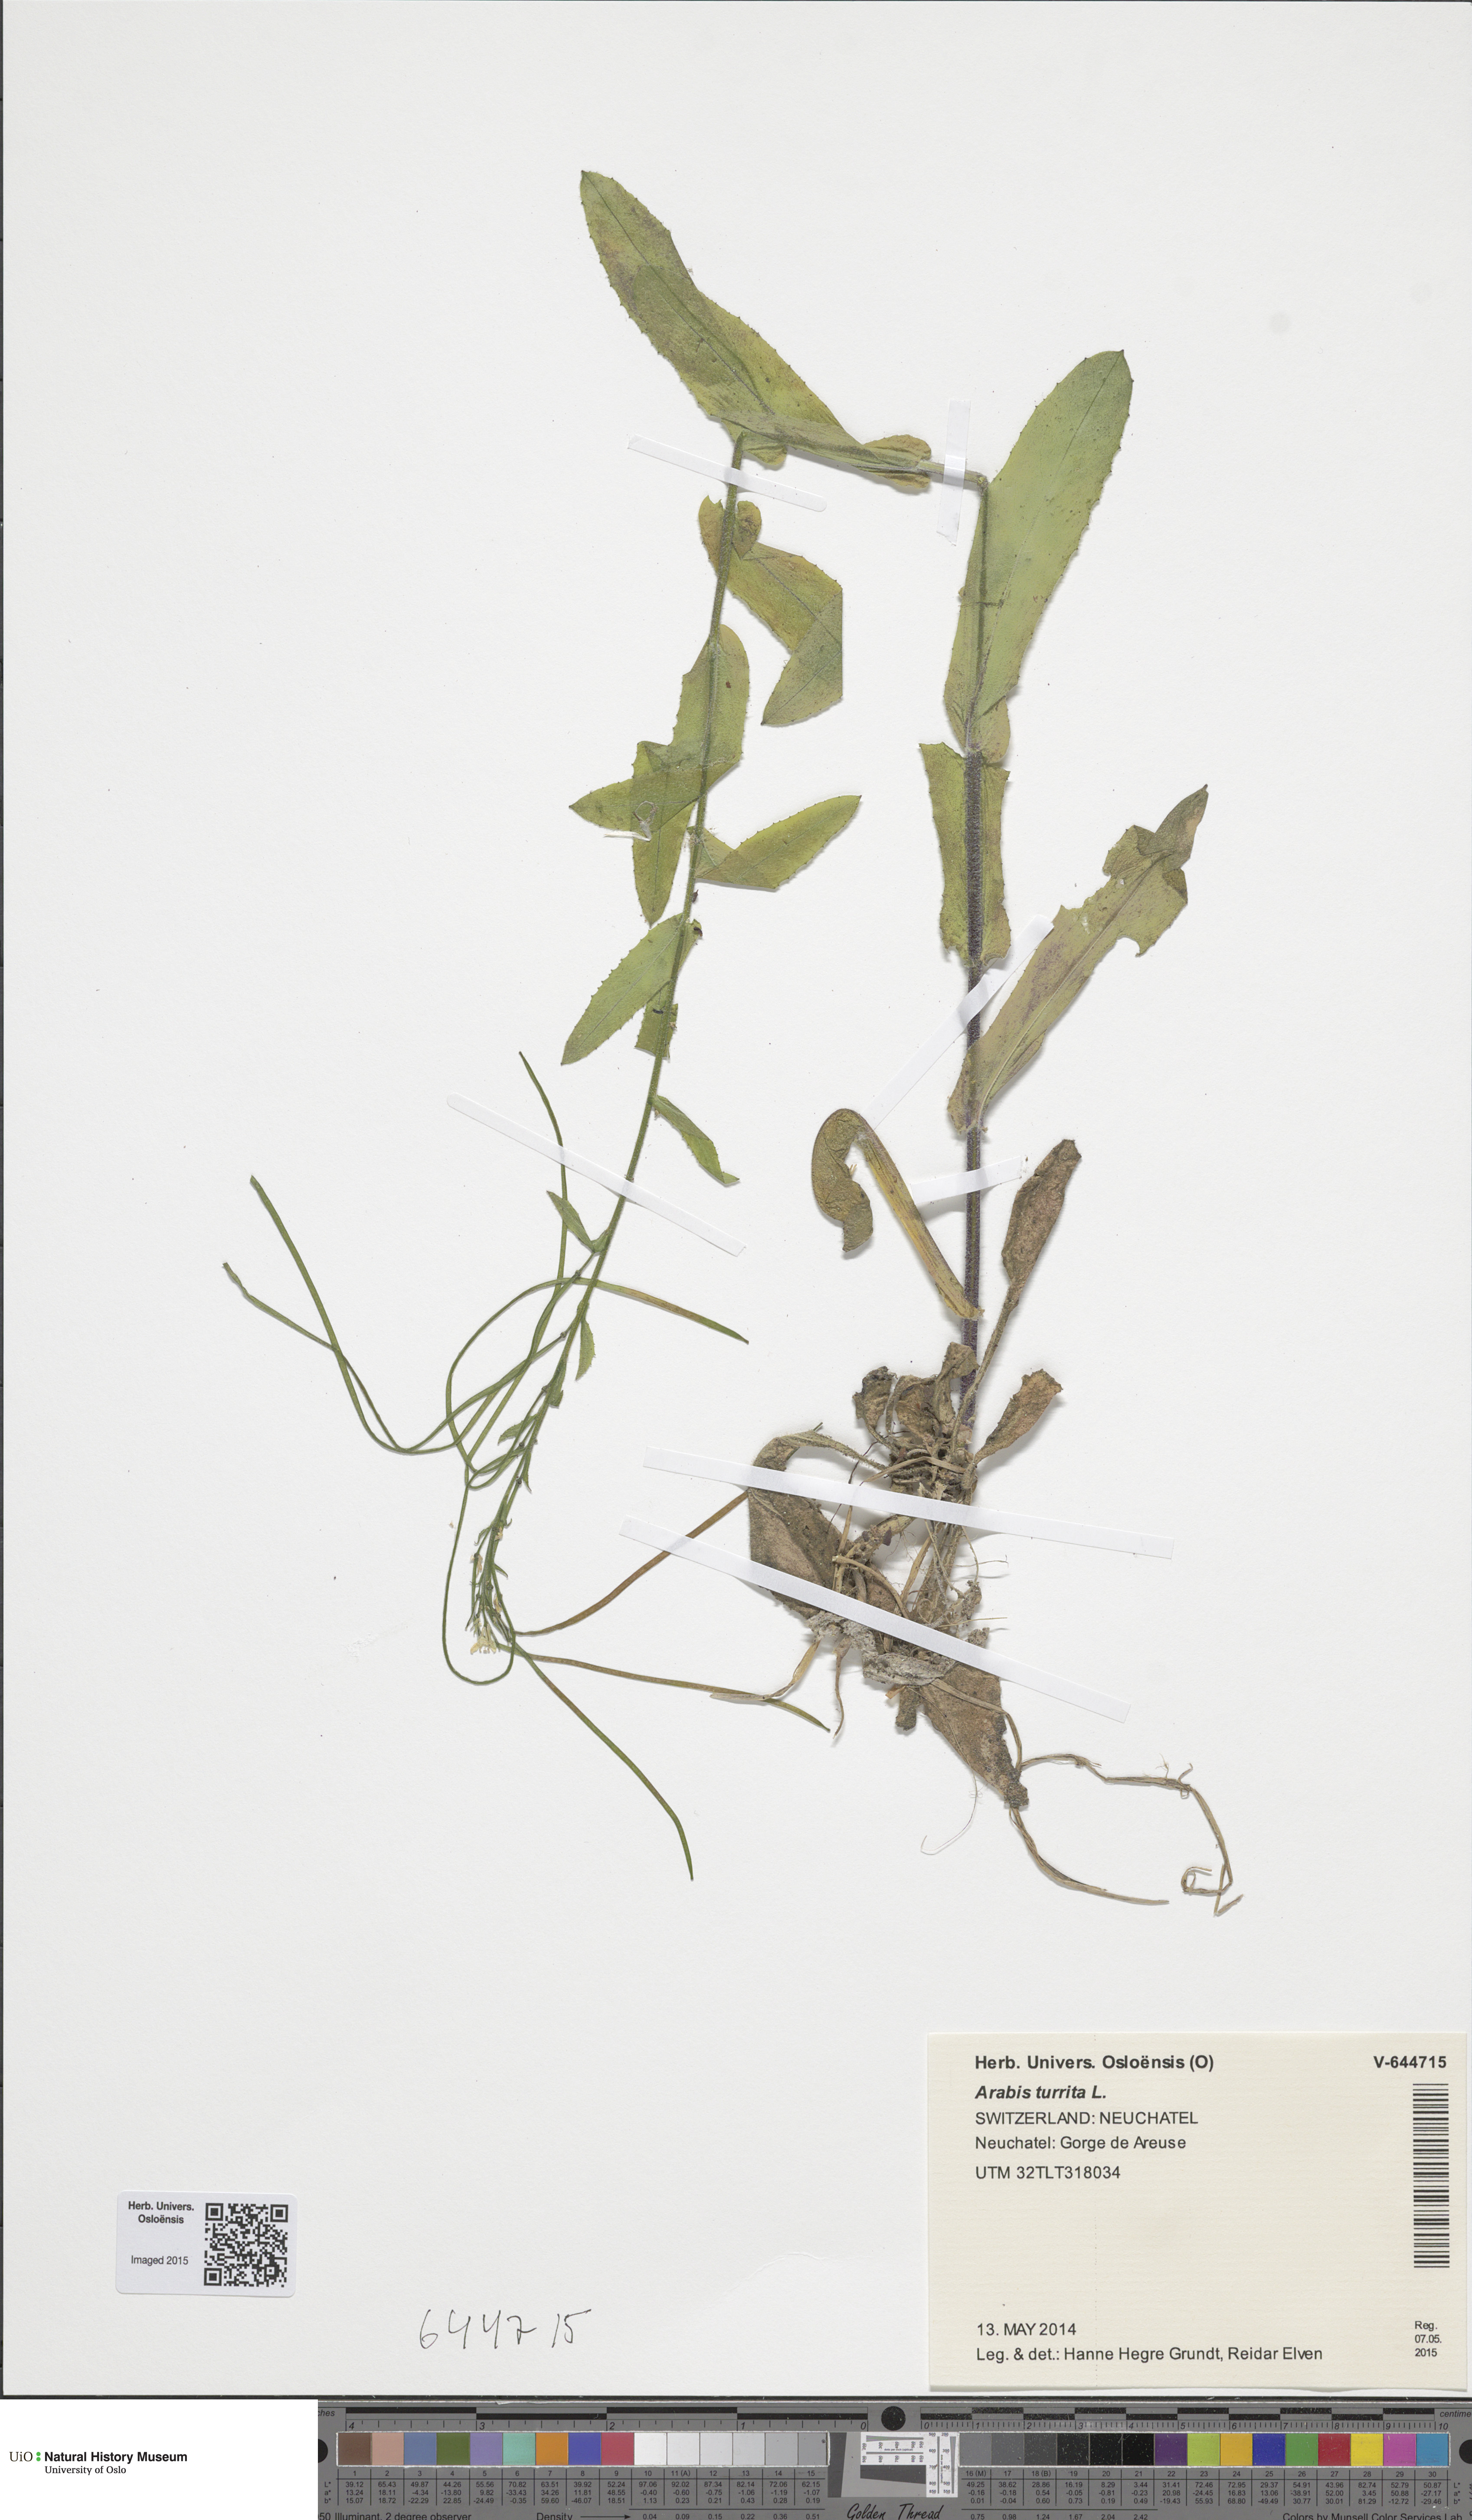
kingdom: Plantae
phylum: Tracheophyta
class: Magnoliopsida
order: Brassicales
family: Brassicaceae
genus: Pseudoturritis
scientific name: Pseudoturritis turrita
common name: Tower cress
